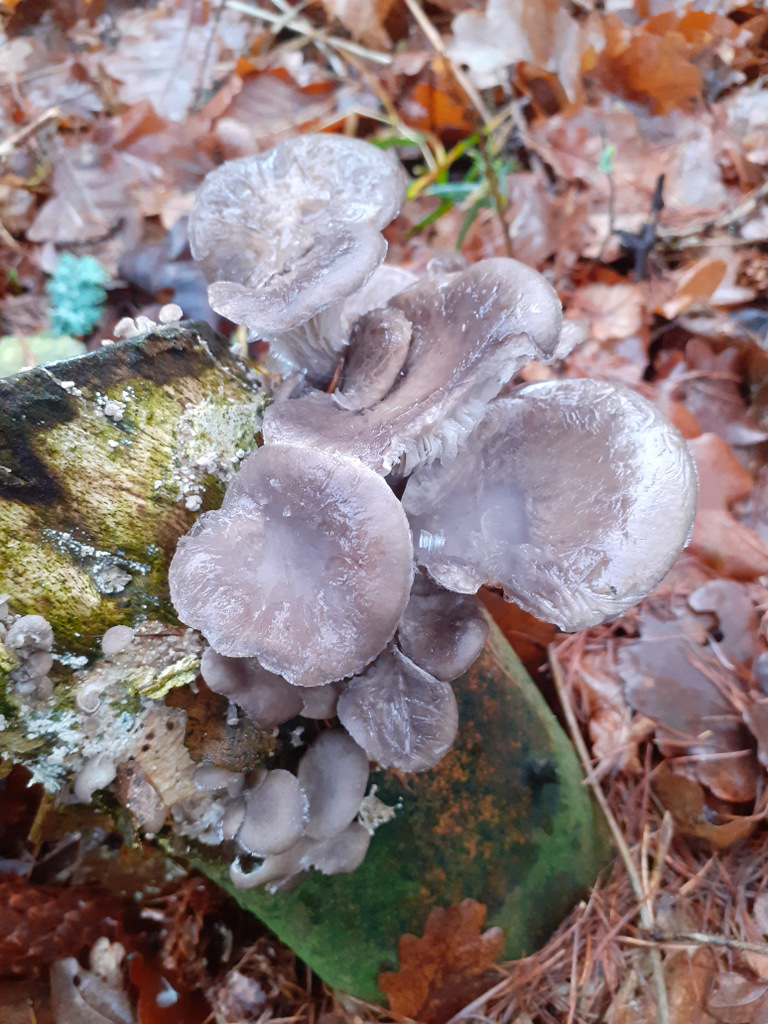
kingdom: Fungi
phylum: Basidiomycota
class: Agaricomycetes
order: Agaricales
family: Pleurotaceae
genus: Pleurotus
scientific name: Pleurotus ostreatus
